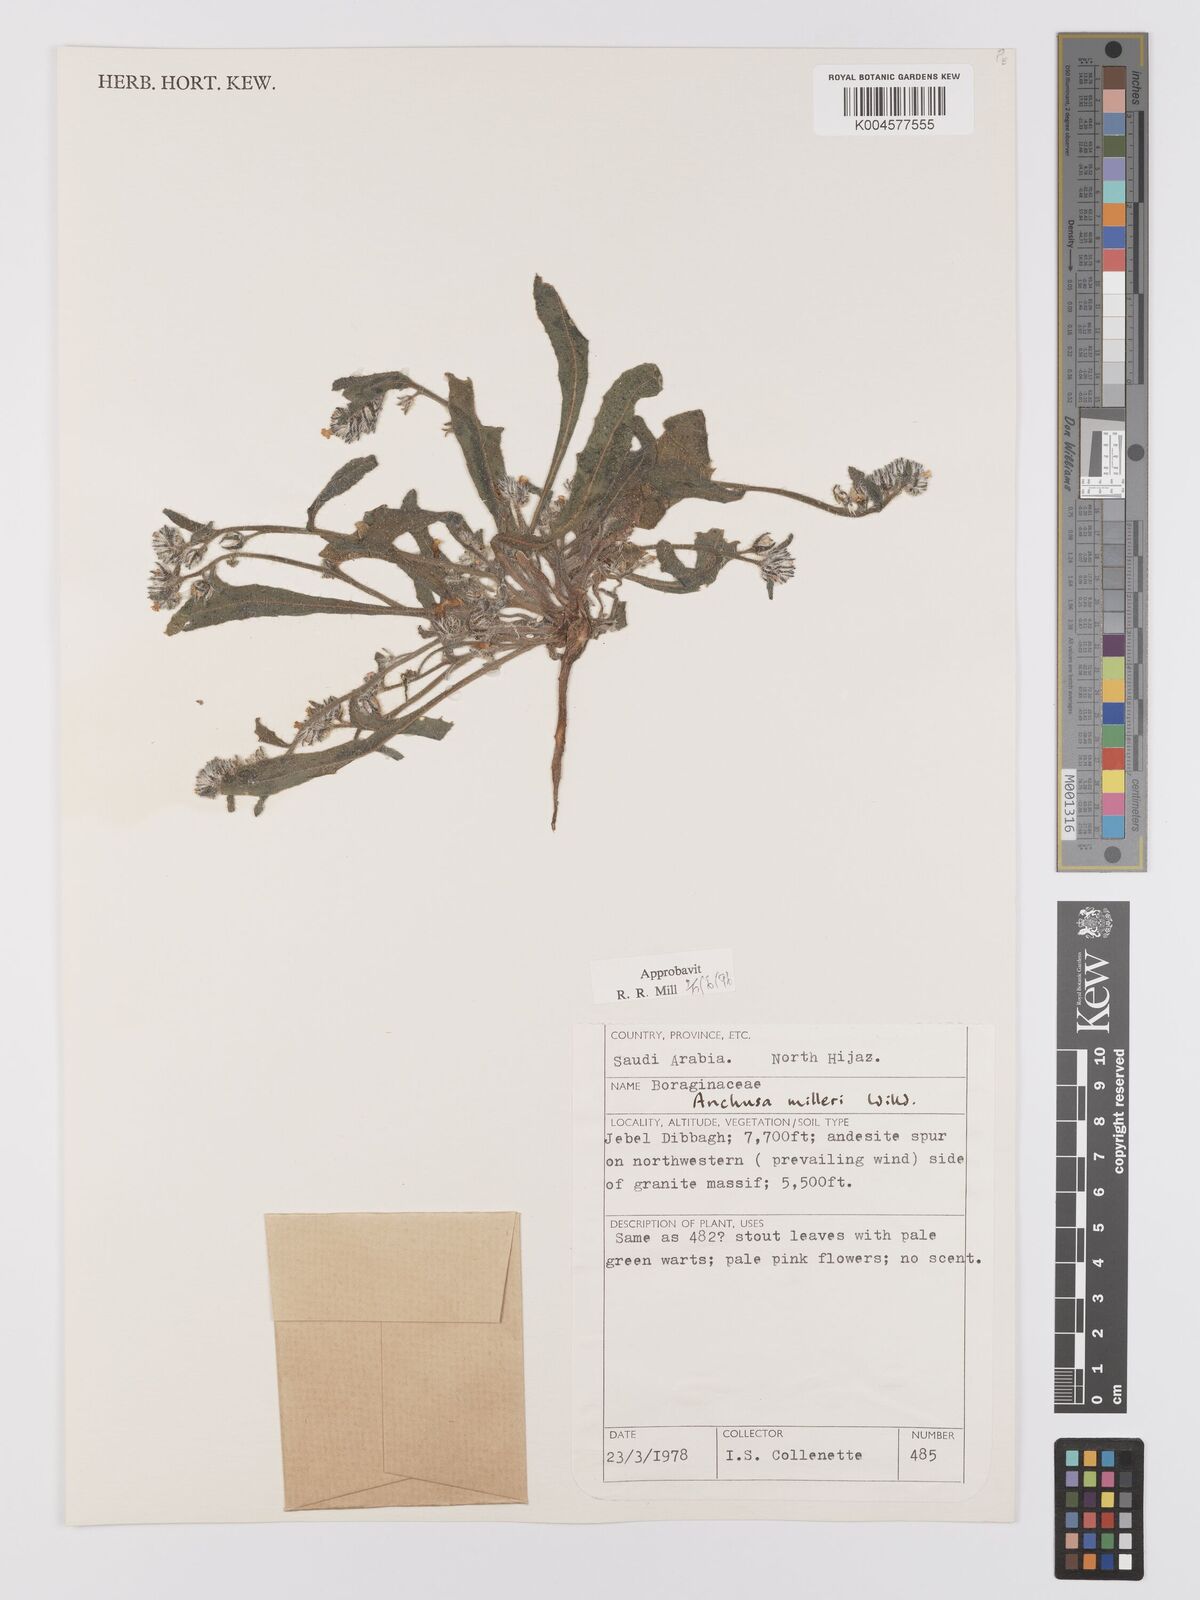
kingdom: Plantae
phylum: Tracheophyta
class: Magnoliopsida
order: Boraginales
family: Boraginaceae
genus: Anchusa
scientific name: Anchusa milleri
